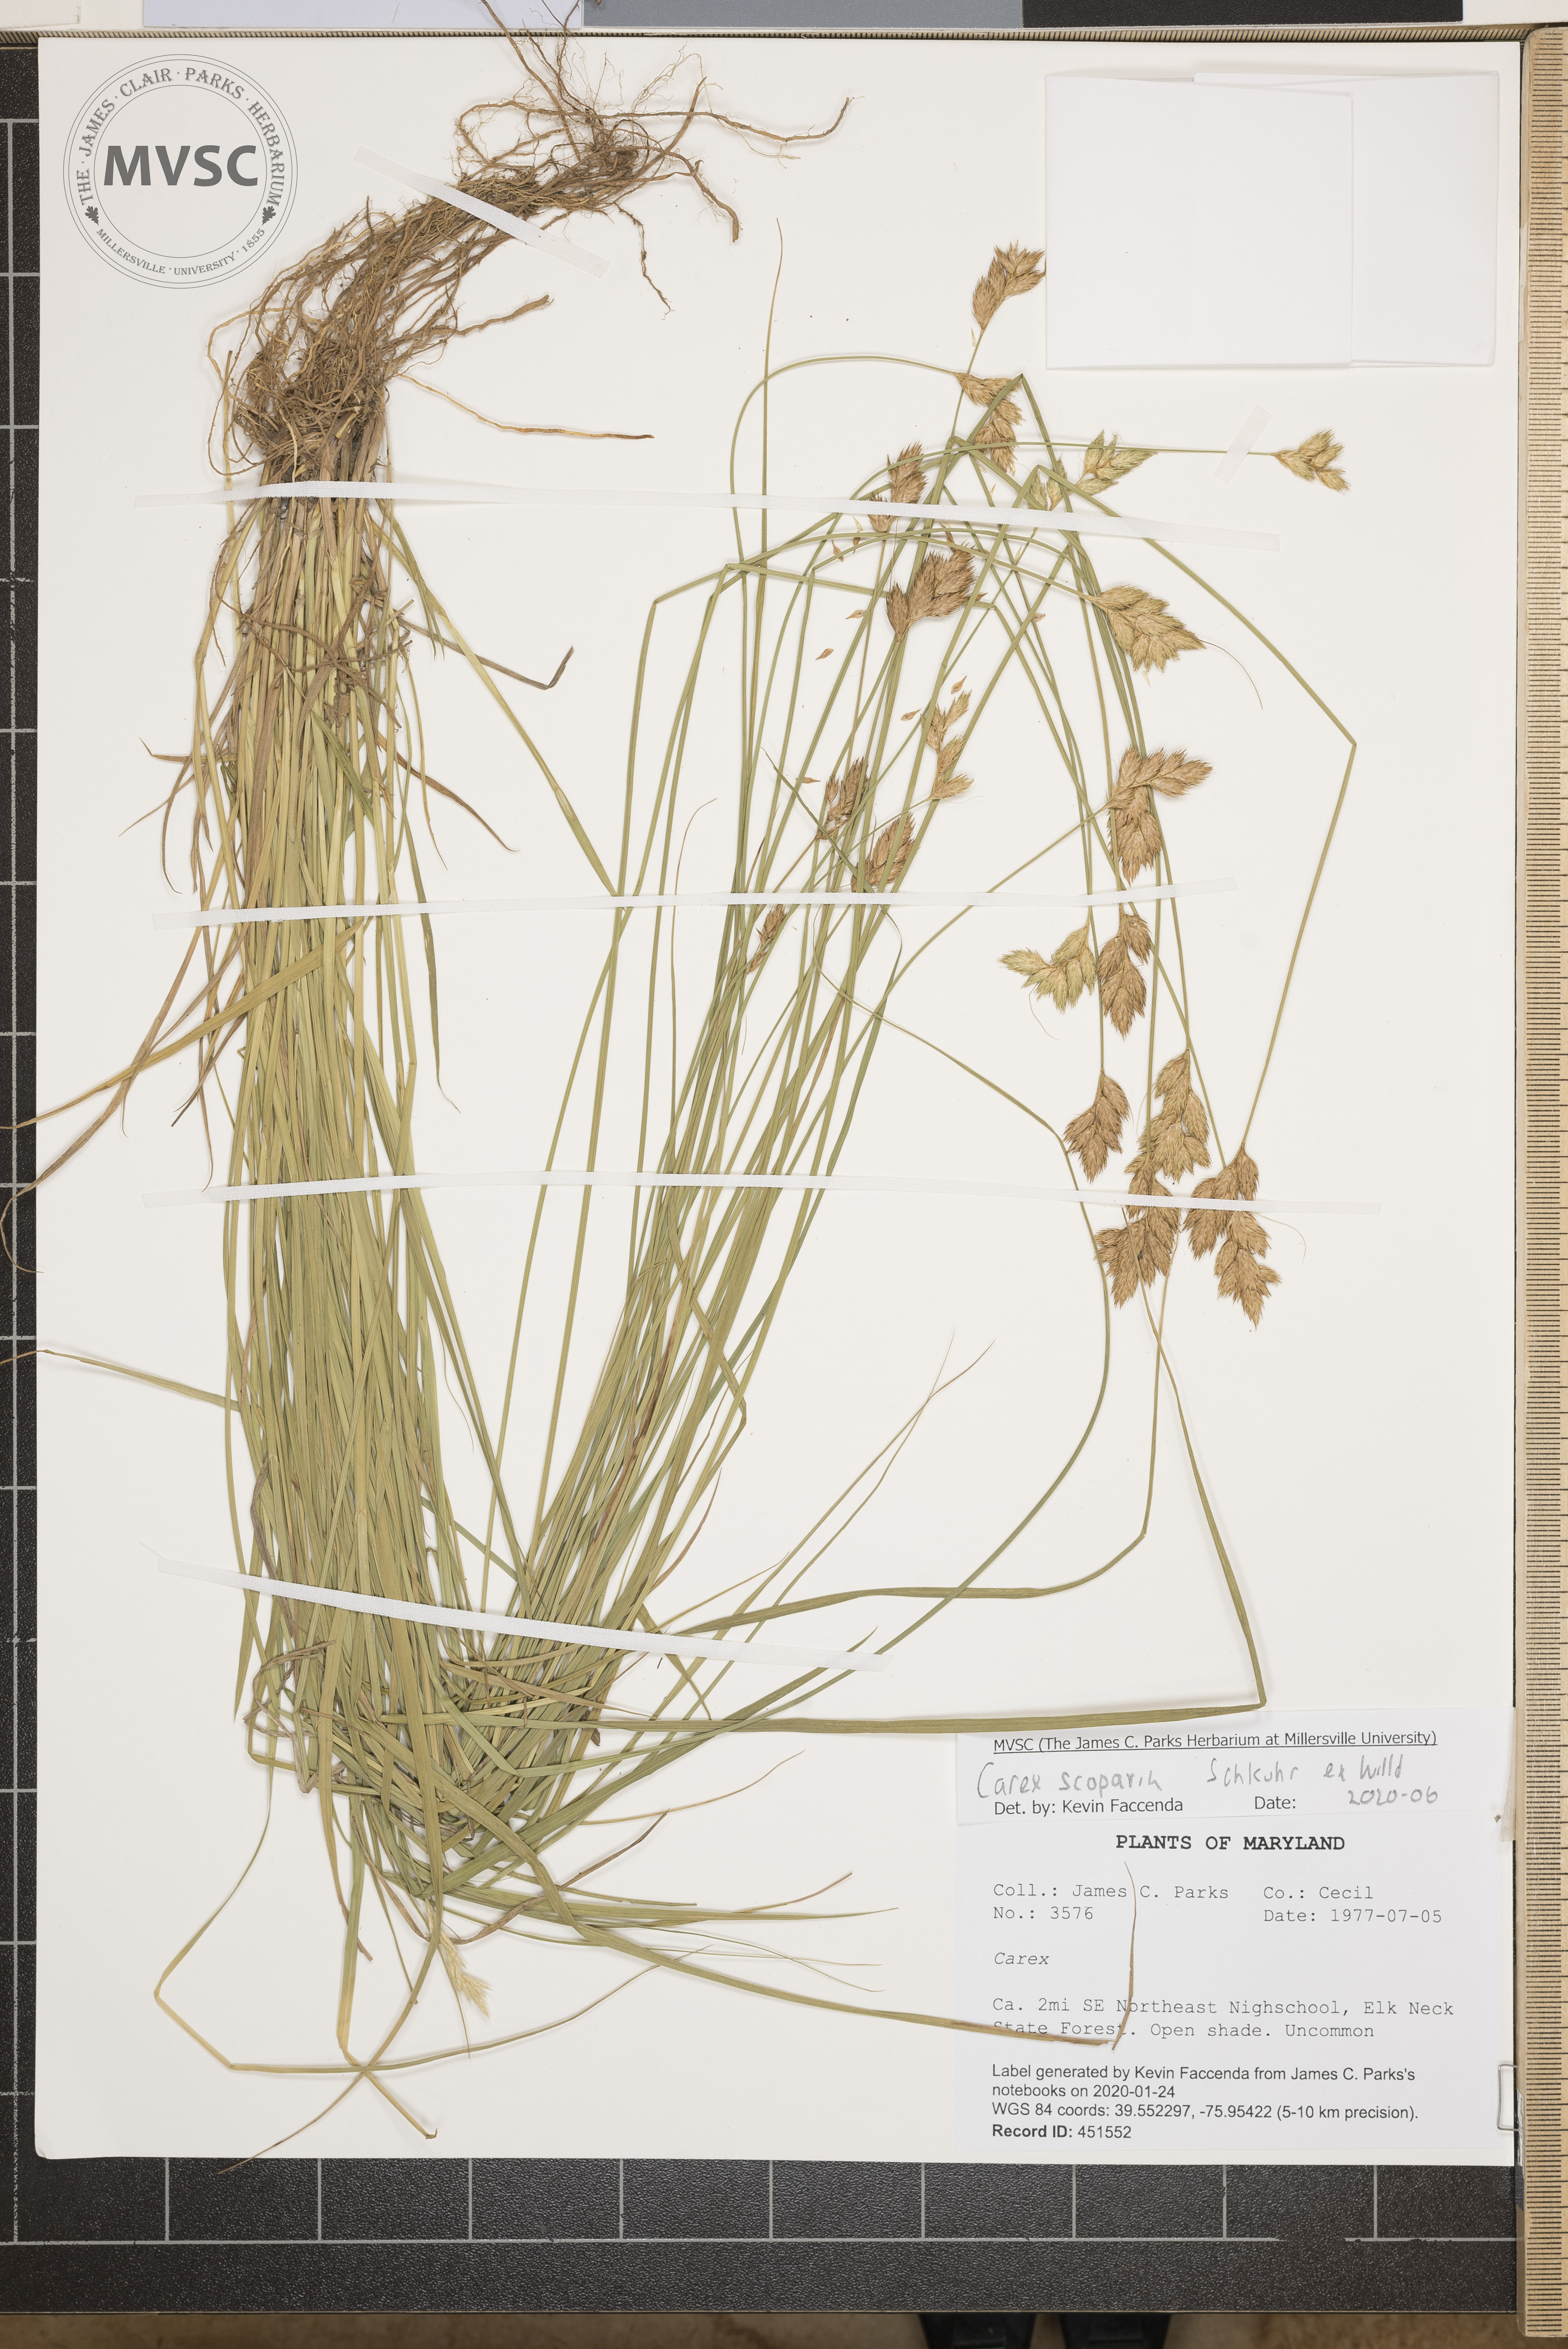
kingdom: Plantae
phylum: Tracheophyta
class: Liliopsida
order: Poales
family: Cyperaceae
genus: Carex
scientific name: Carex scoparia
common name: Broom sedge
